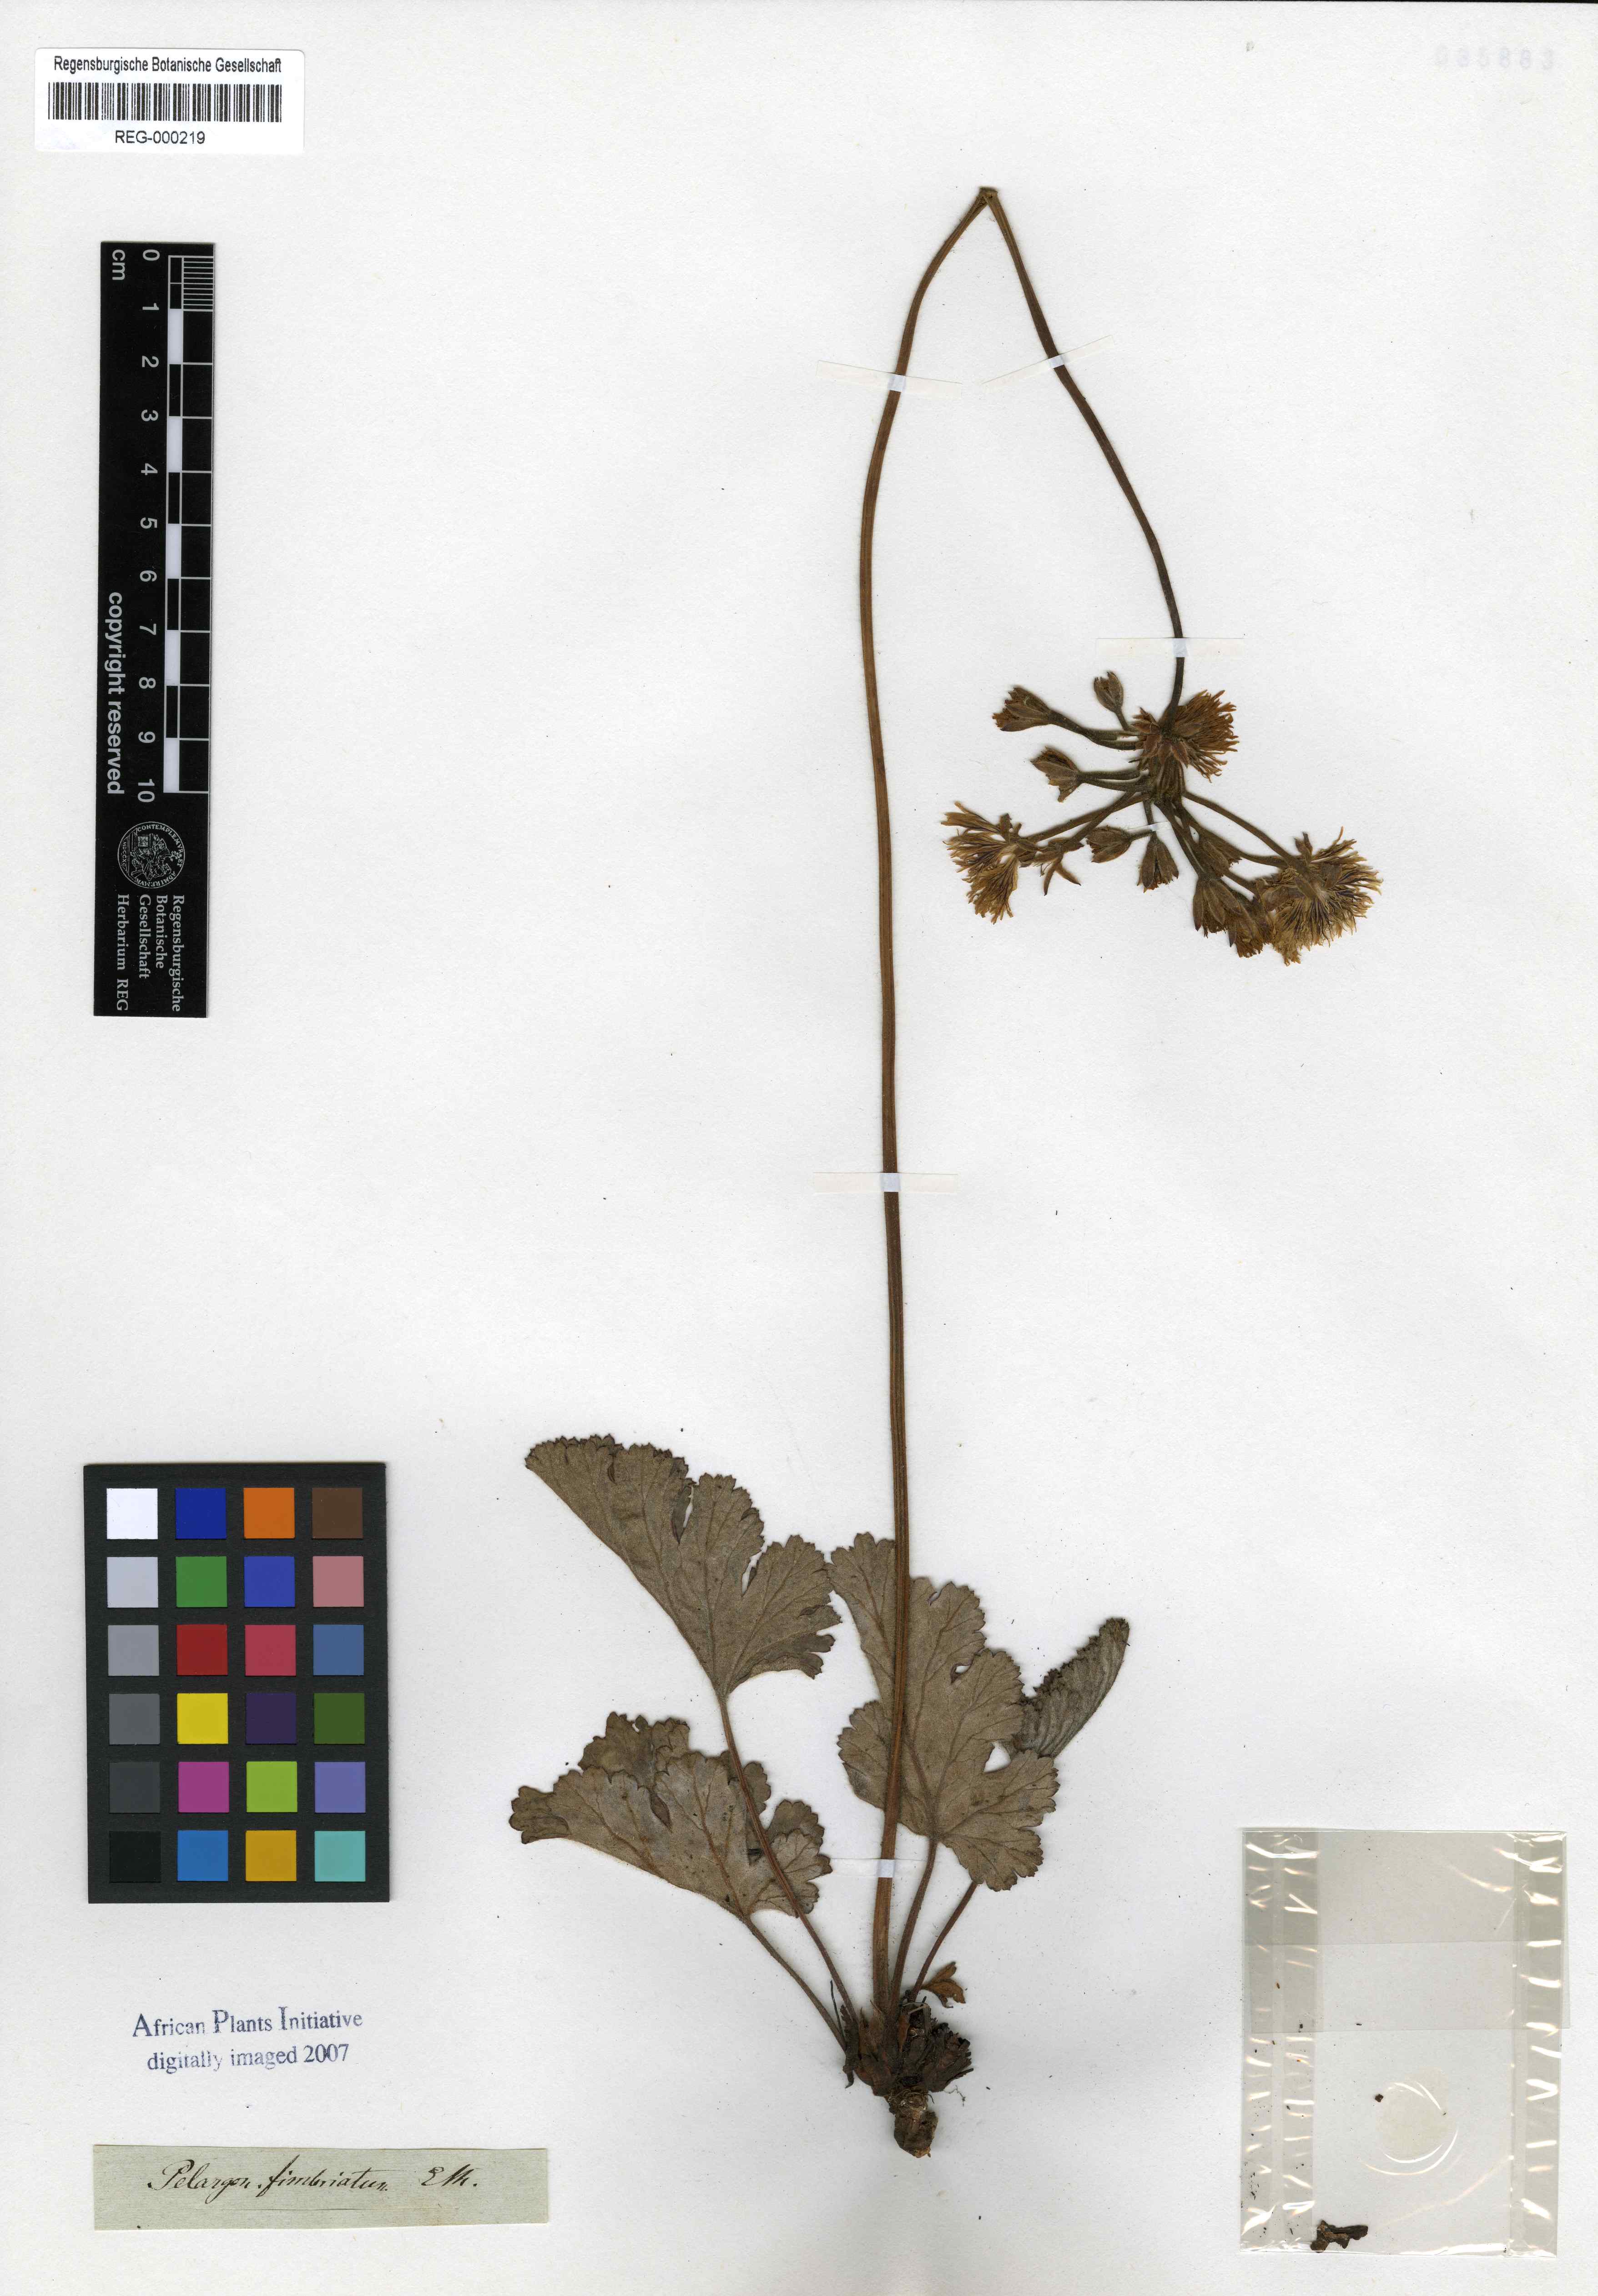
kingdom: Plantae
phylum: Tracheophyta
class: Magnoliopsida
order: Geraniales
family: Geraniaceae
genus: Pelargonium
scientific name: Pelargonium schizopetalum
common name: Divided-petal pelargonium
